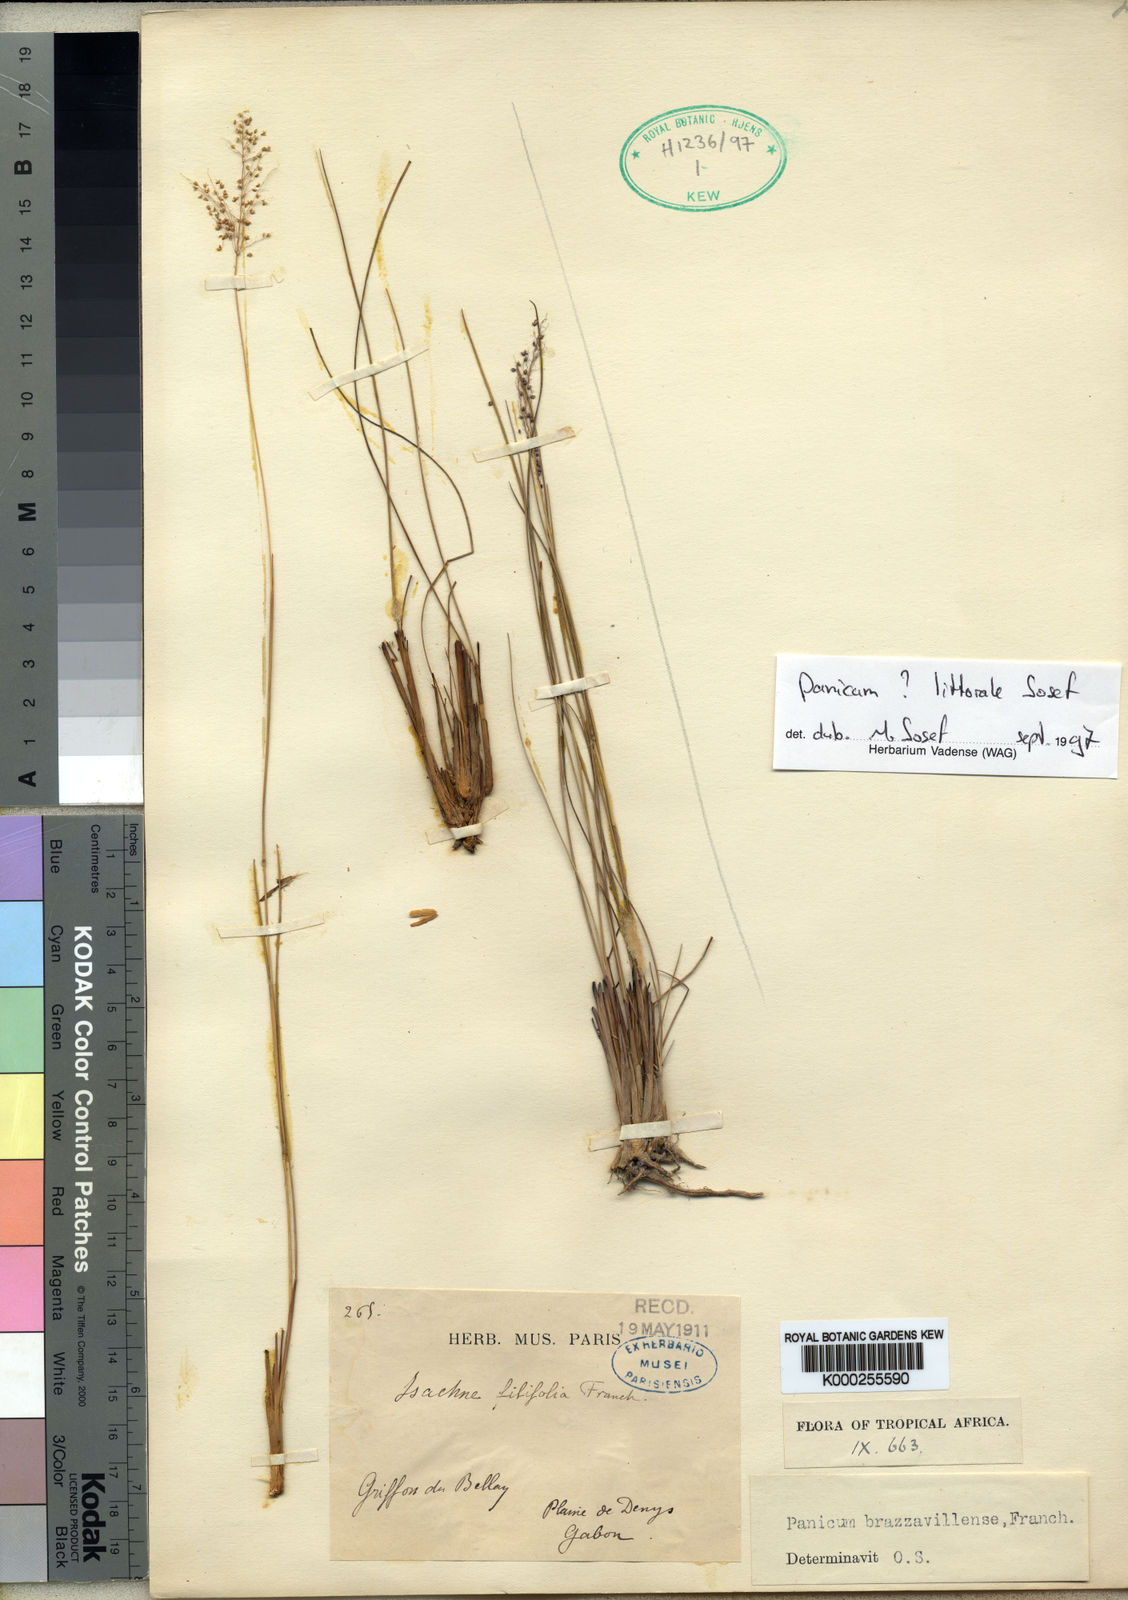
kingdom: Plantae
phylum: Tracheophyta
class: Liliopsida
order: Poales
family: Poaceae
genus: Trichanthecium
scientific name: Trichanthecium brazzavillense
